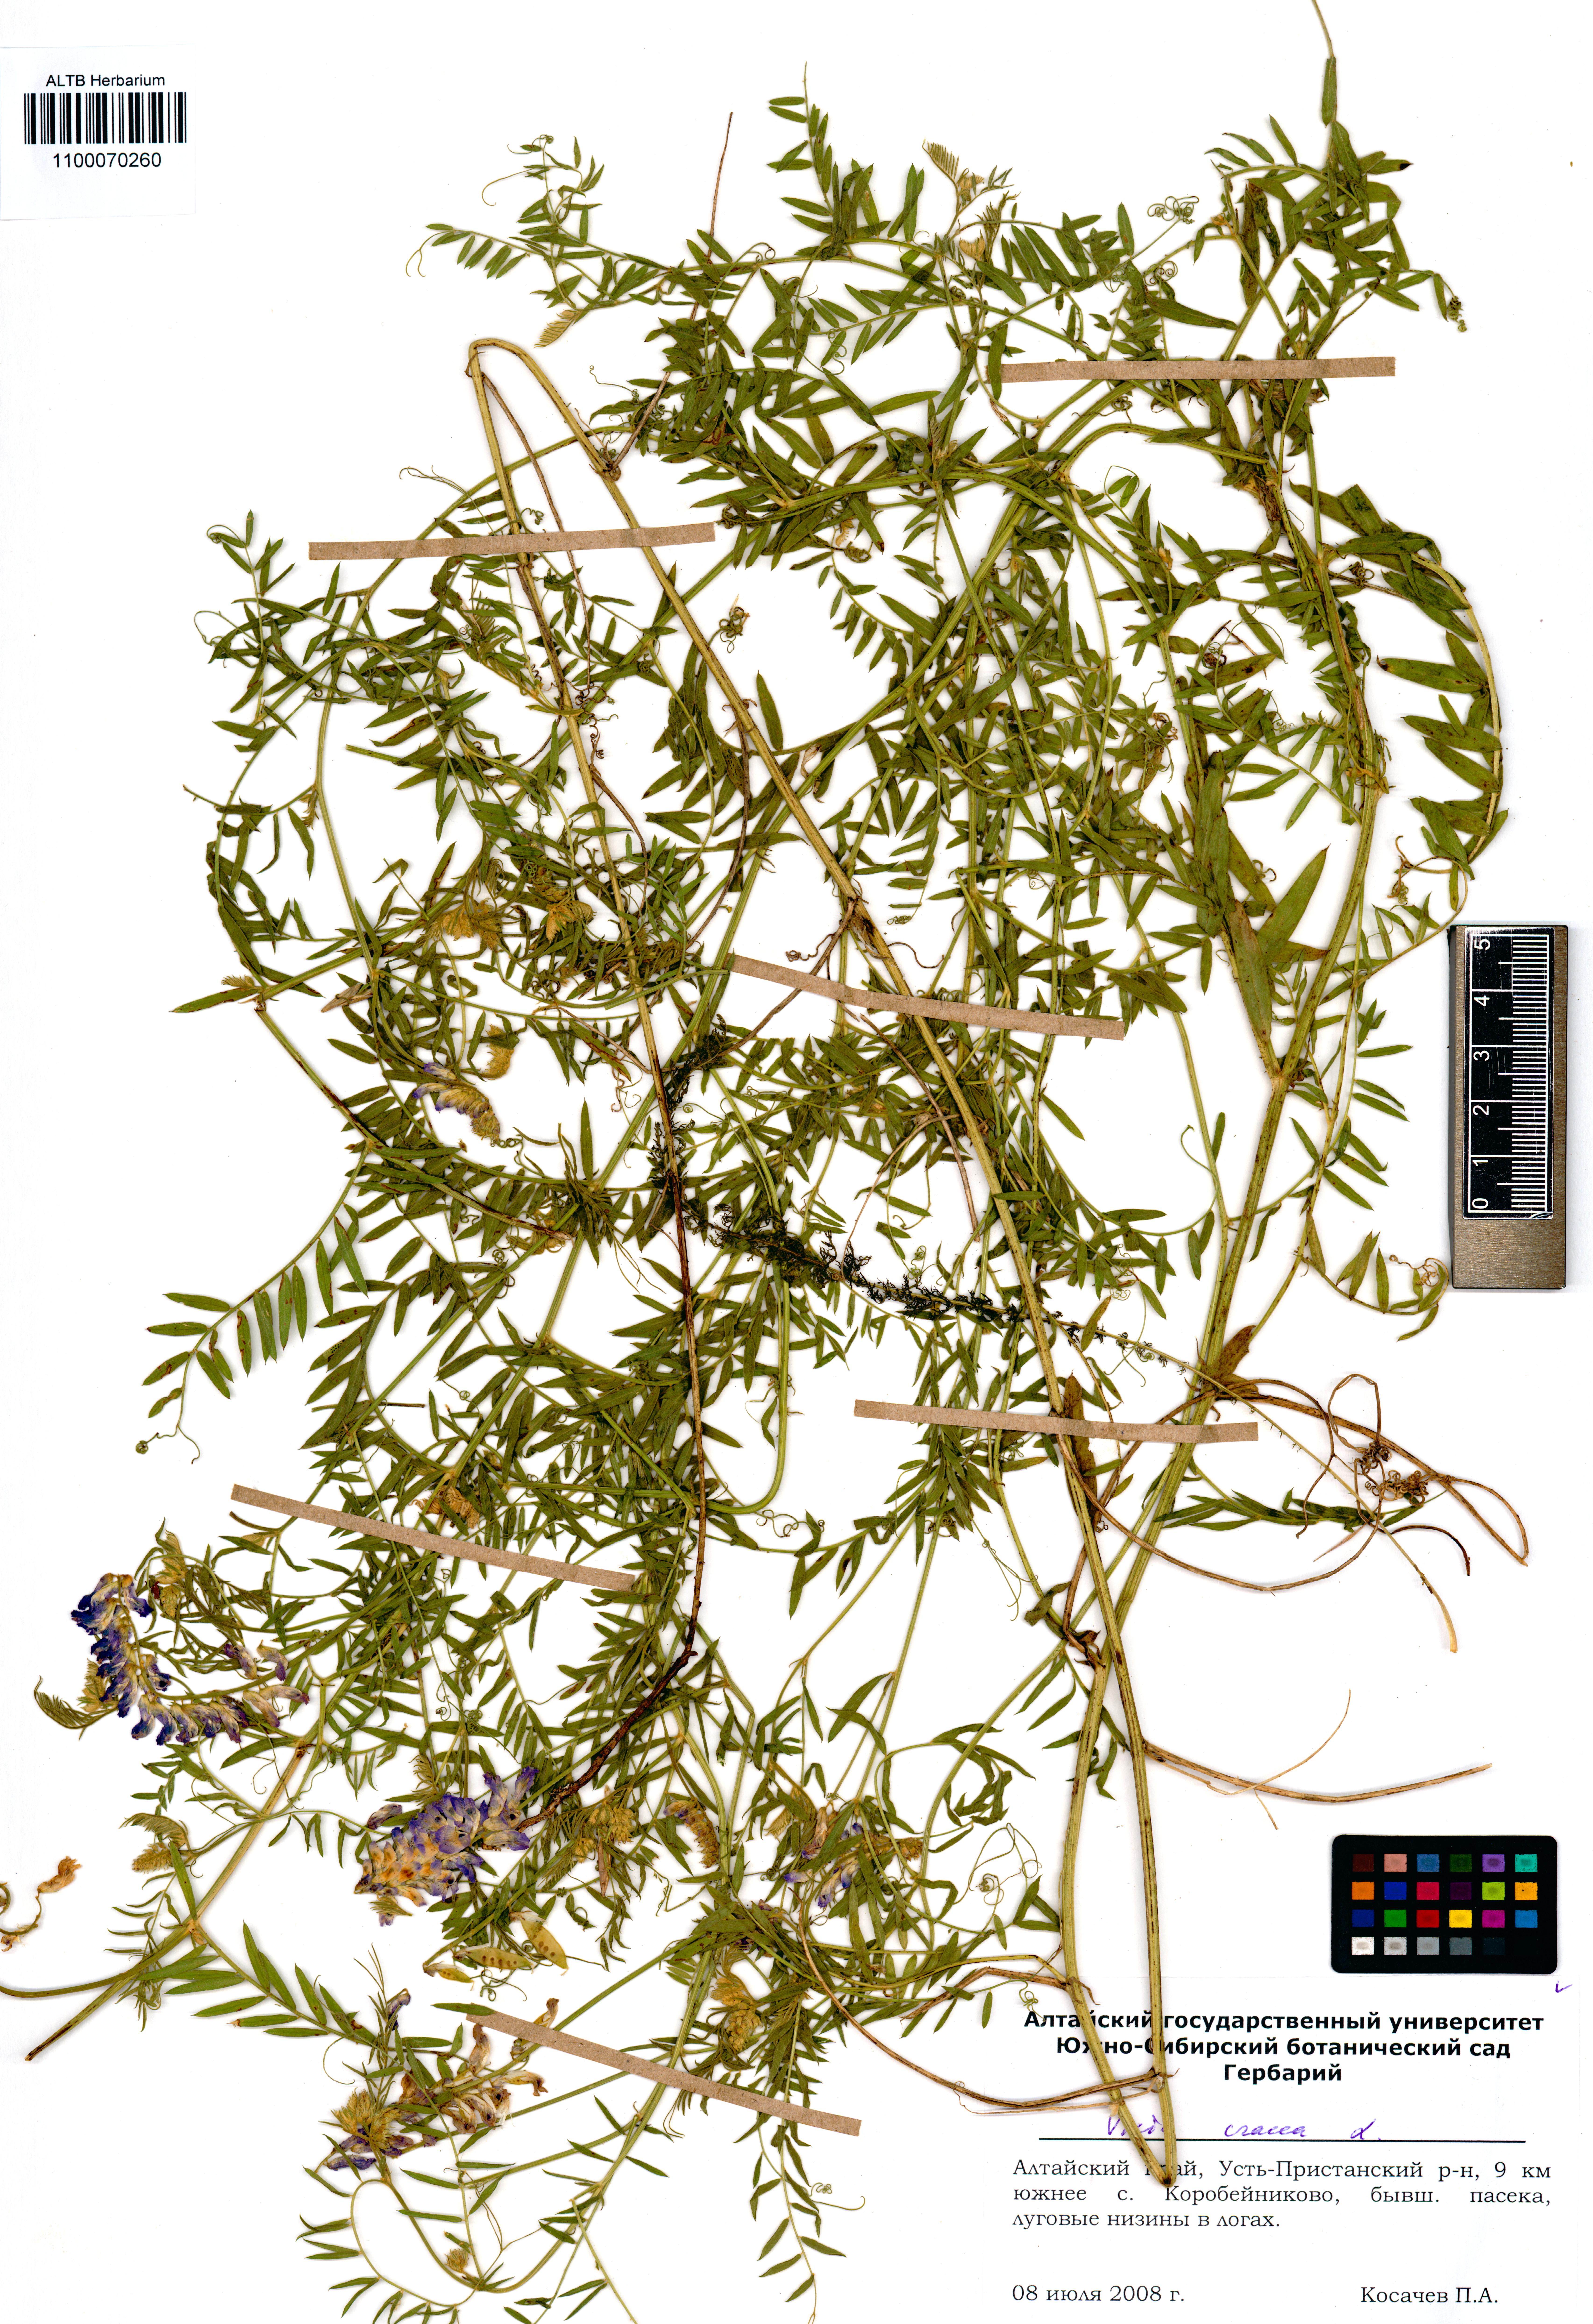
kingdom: Plantae
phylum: Tracheophyta
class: Magnoliopsida
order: Fabales
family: Fabaceae
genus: Vicia
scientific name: Vicia cracca
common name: Bird vetch
